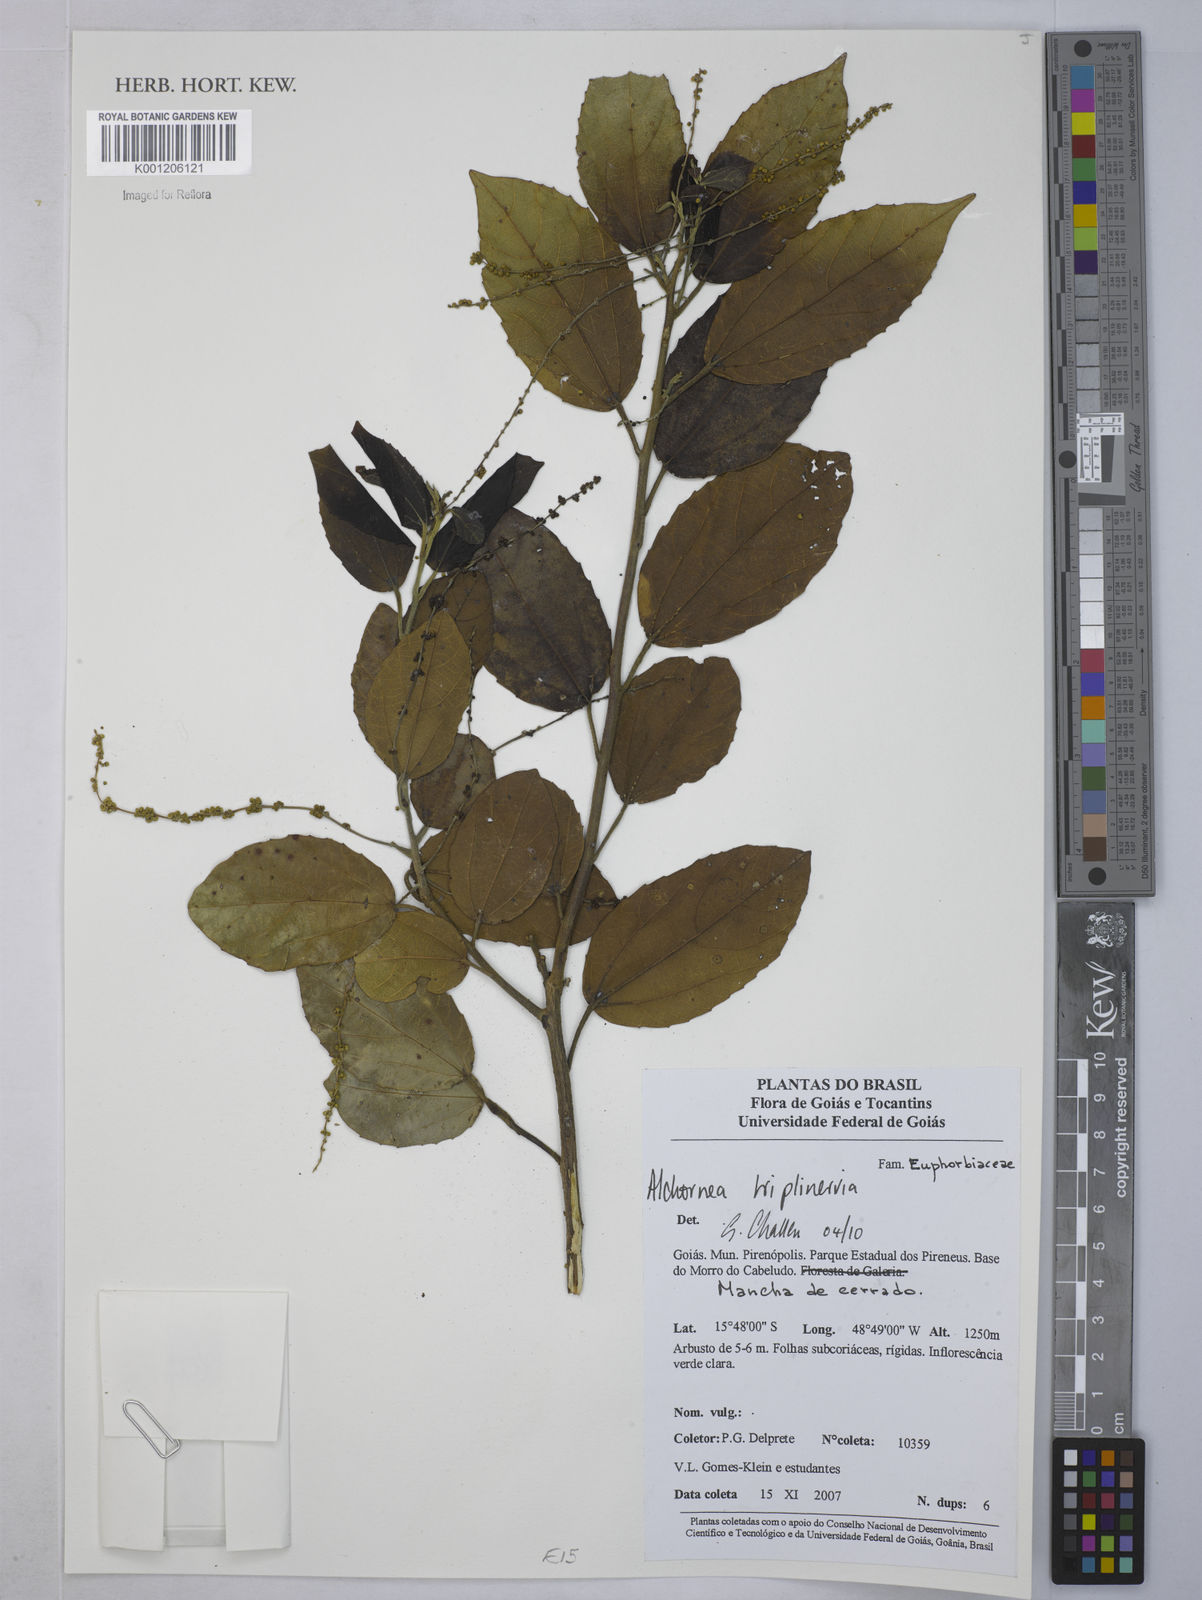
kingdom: Plantae
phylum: Tracheophyta
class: Magnoliopsida
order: Malpighiales
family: Euphorbiaceae
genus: Alchornea
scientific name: Alchornea
